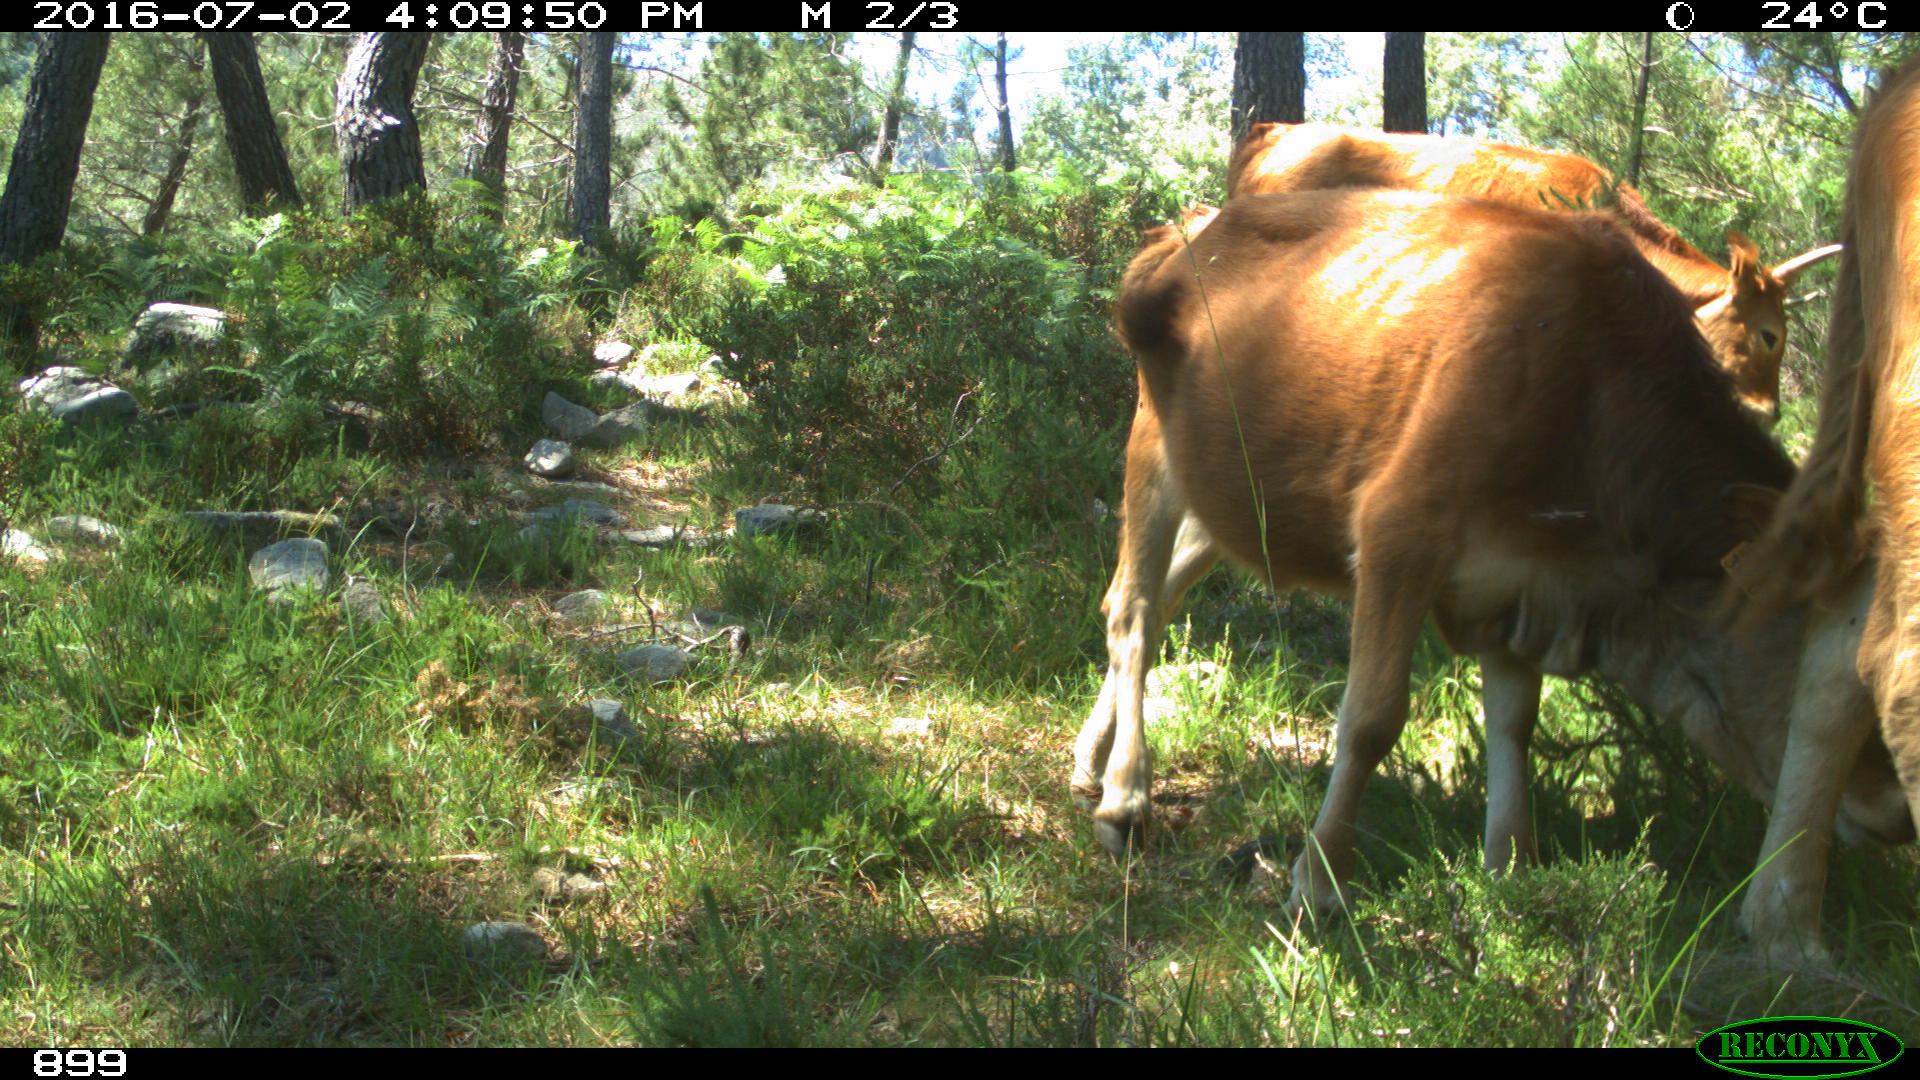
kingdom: Animalia
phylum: Chordata
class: Mammalia
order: Artiodactyla
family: Bovidae
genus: Bos
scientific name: Bos taurus
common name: Domesticated cattle
